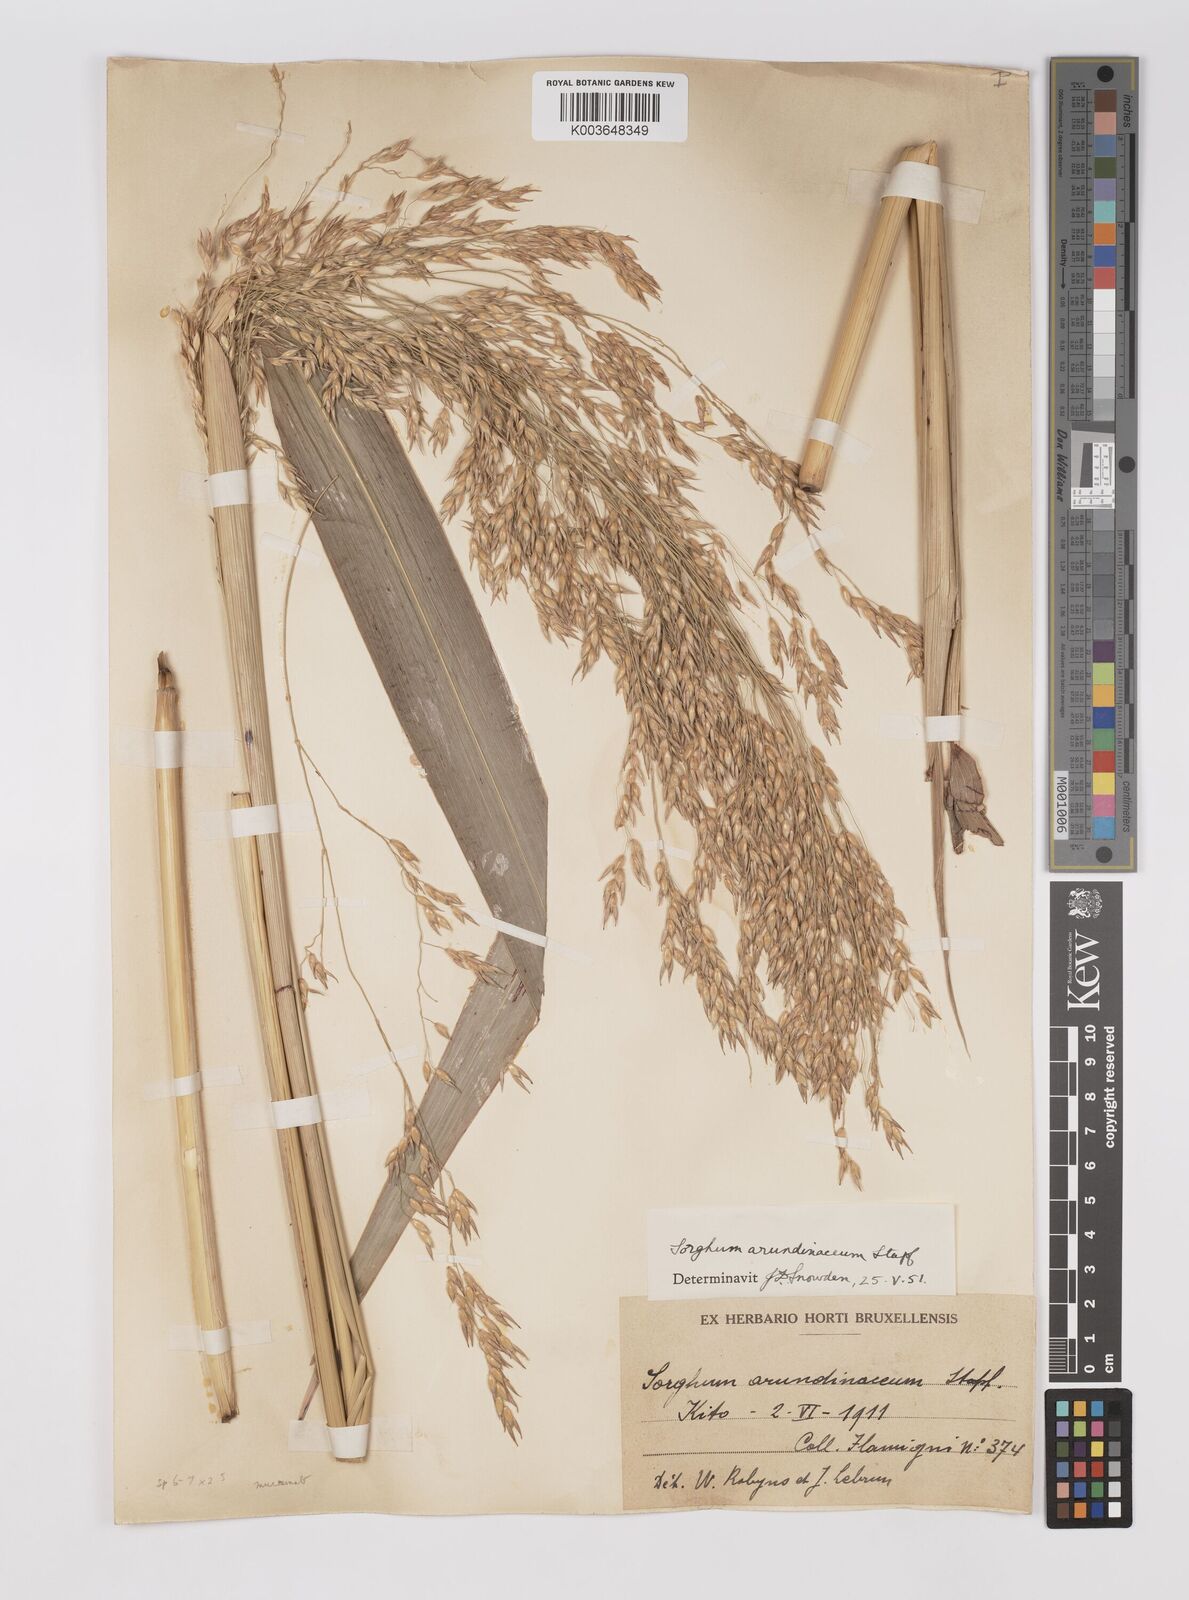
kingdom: Plantae
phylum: Tracheophyta
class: Liliopsida
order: Poales
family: Poaceae
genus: Sorghum
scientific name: Sorghum arundinaceum
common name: Sorghum
